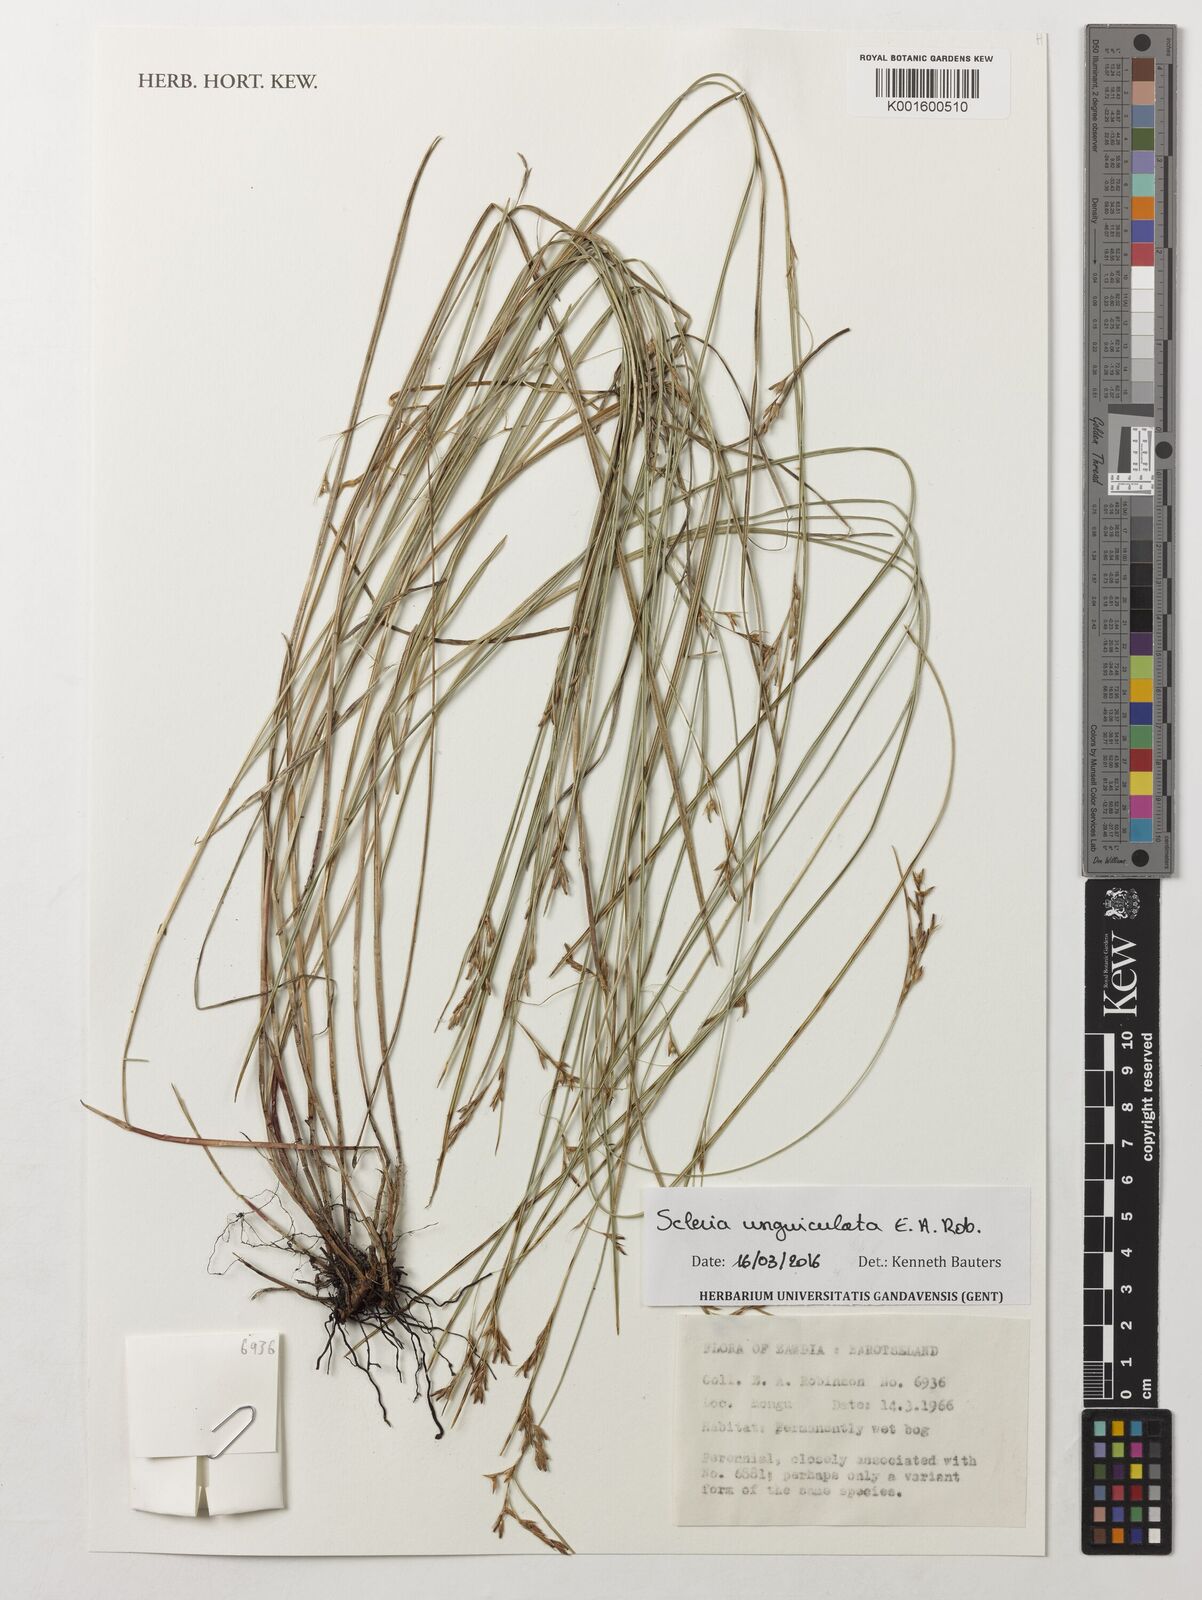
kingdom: Plantae
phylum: Tracheophyta
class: Liliopsida
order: Poales
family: Cyperaceae
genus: Scleria
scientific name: Scleria unguiculata
